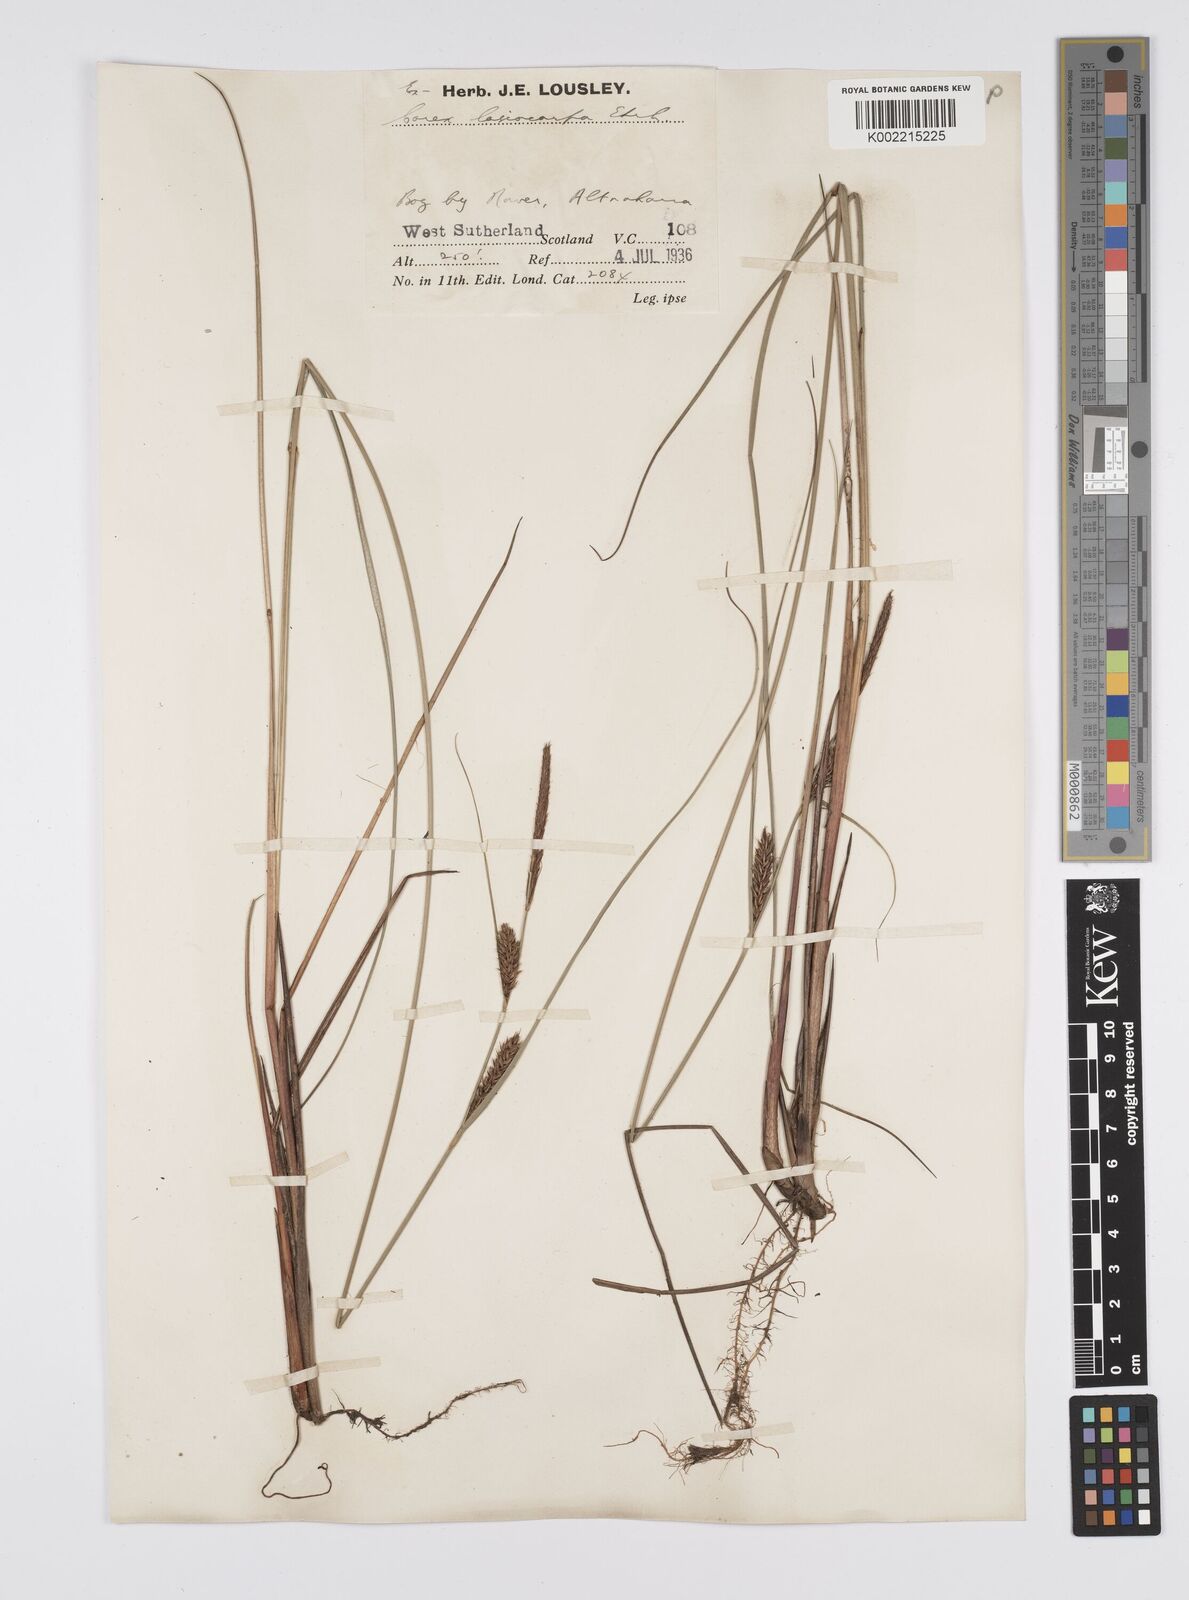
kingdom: Plantae
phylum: Tracheophyta
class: Liliopsida
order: Poales
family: Cyperaceae
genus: Carex
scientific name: Carex lasiocarpa
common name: Slender sedge
